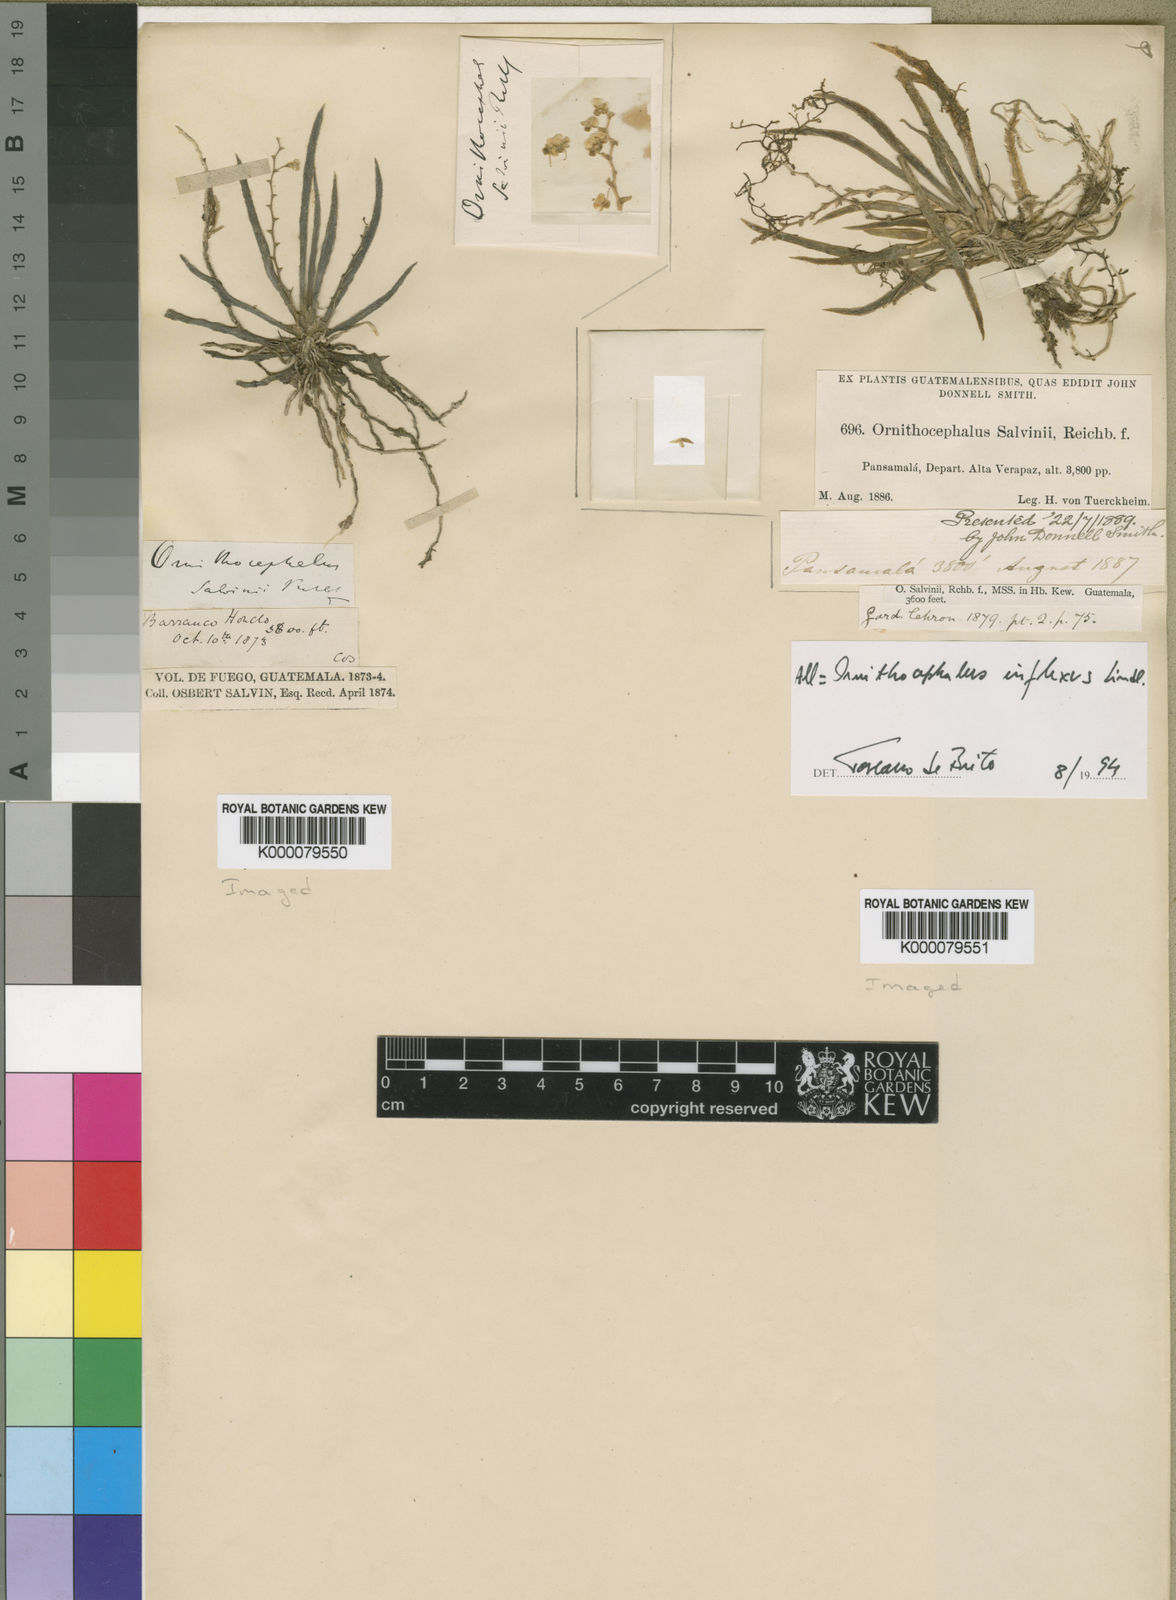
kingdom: Plantae
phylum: Tracheophyta
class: Liliopsida
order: Asparagales
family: Orchidaceae
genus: Ornithocephalus
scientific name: Ornithocephalus inflexus
